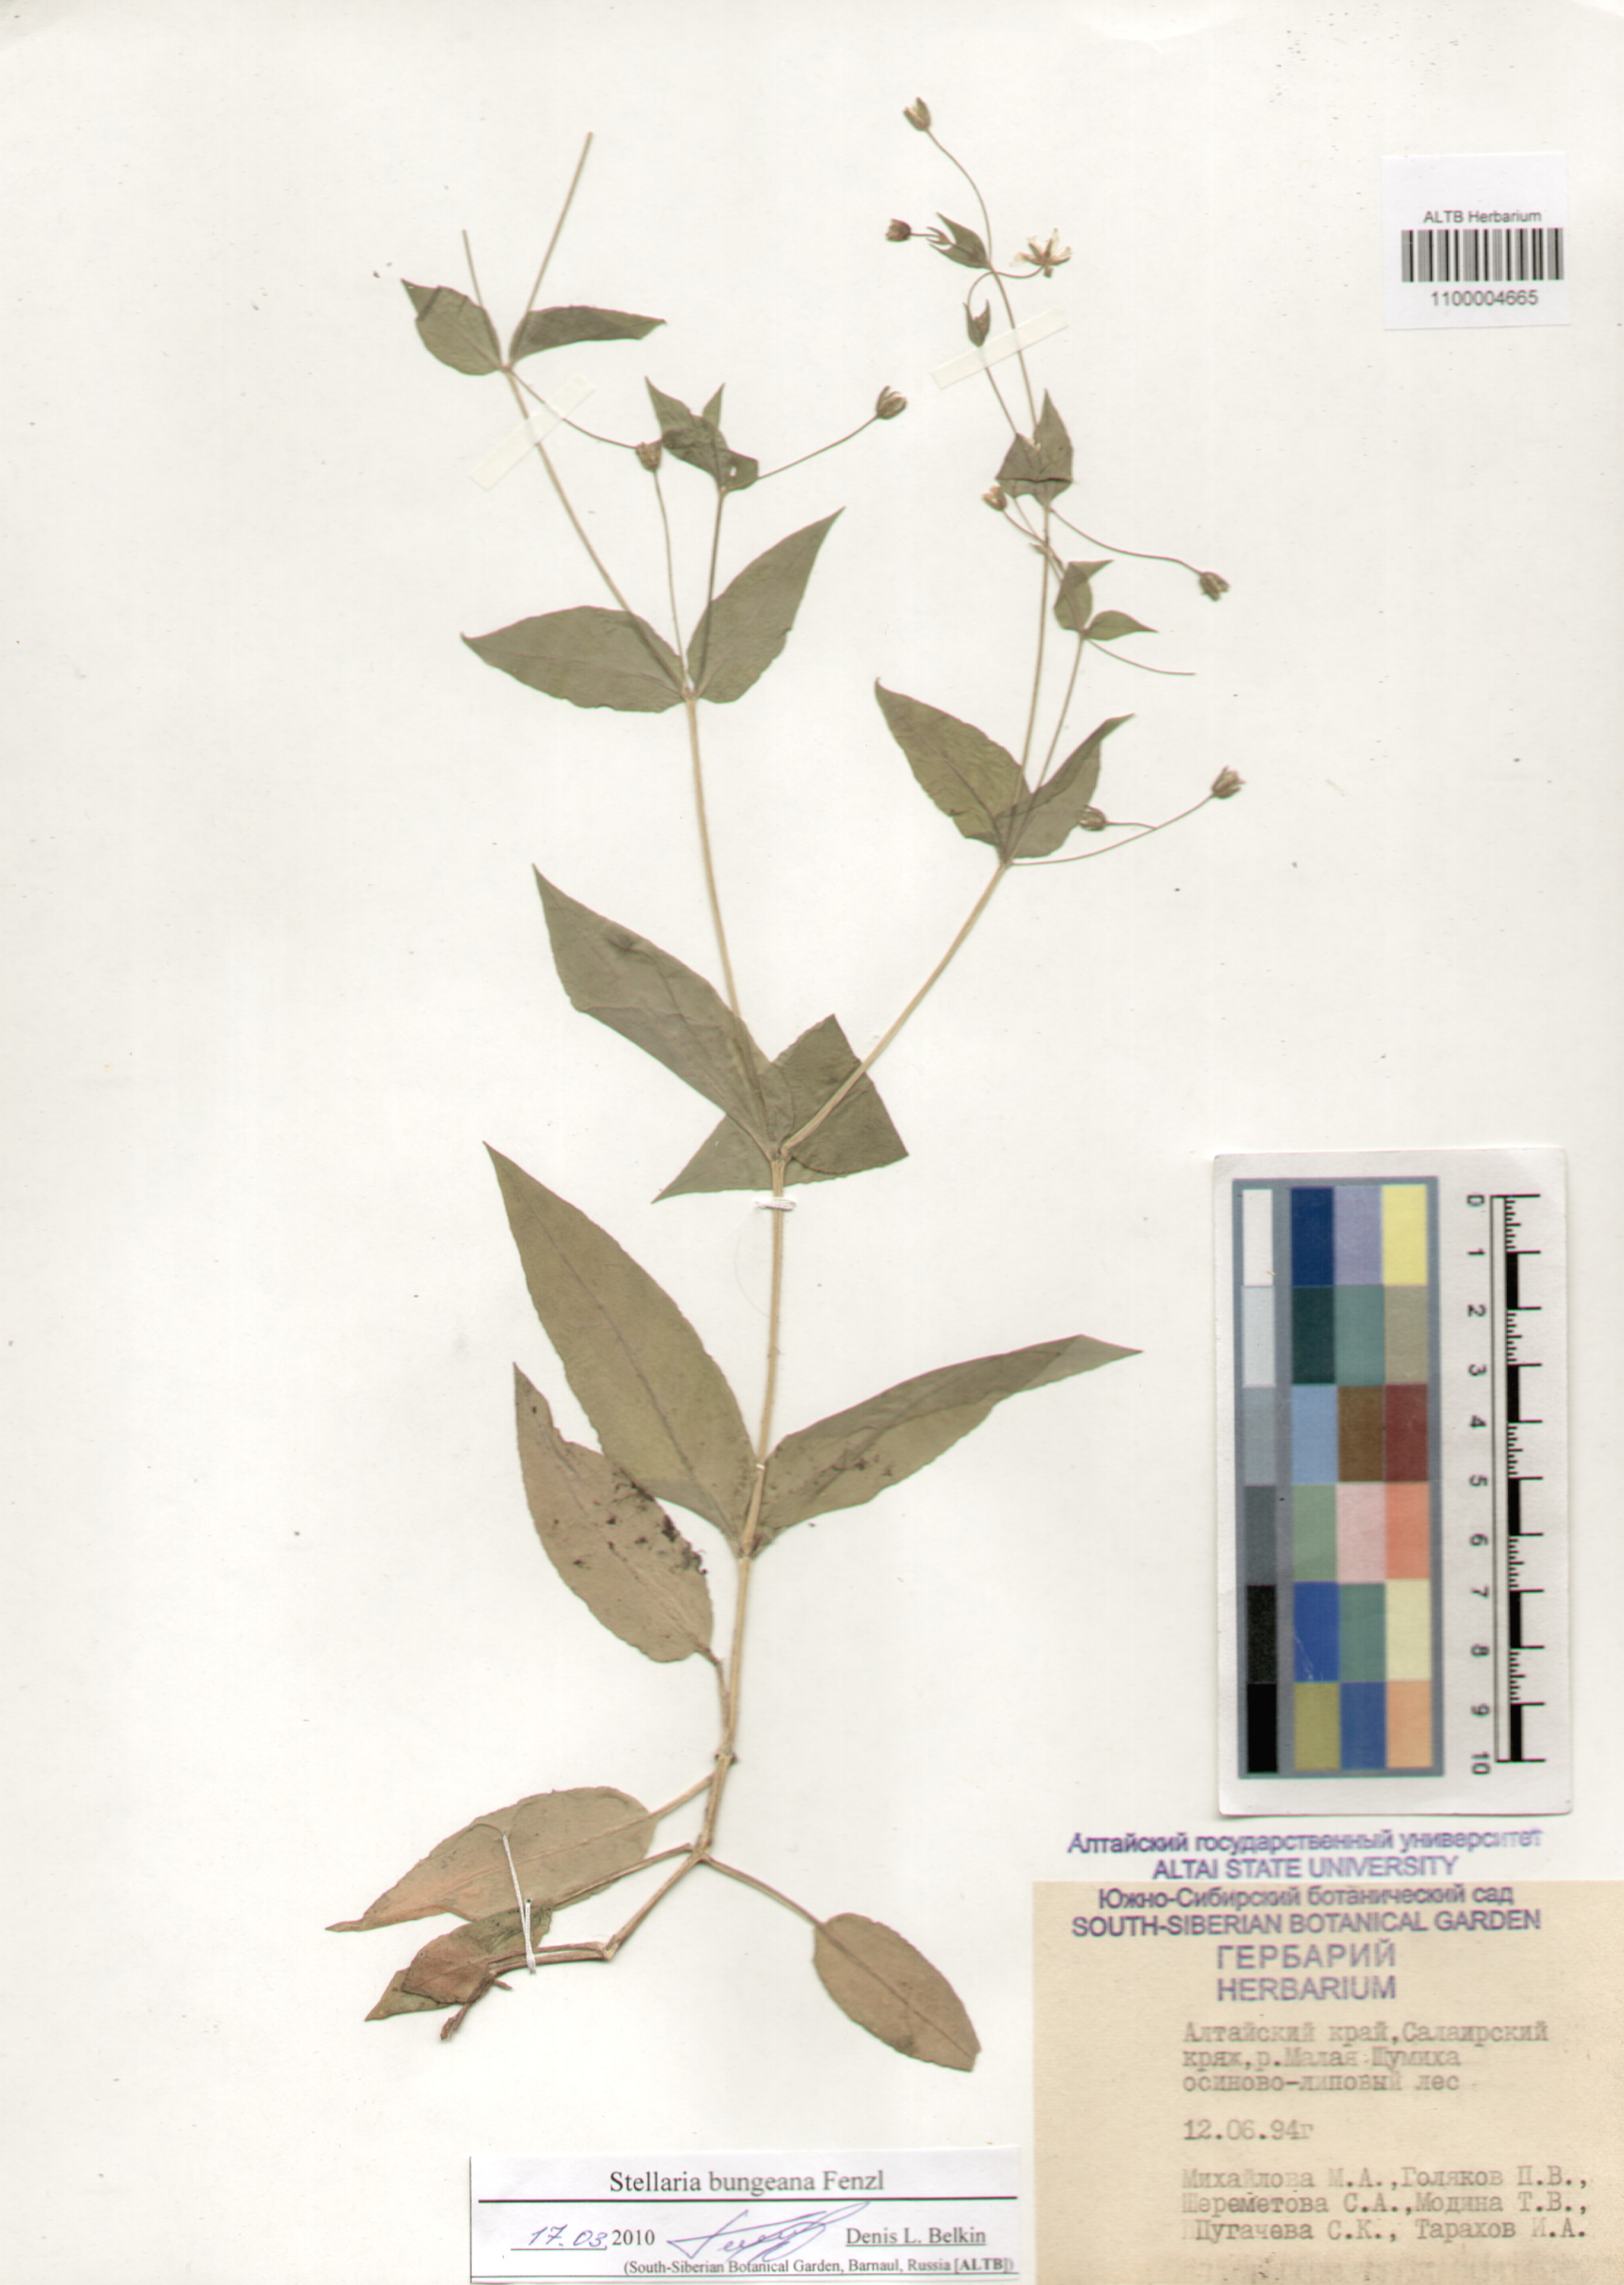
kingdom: Plantae
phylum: Tracheophyta
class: Magnoliopsida
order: Caryophyllales
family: Caryophyllaceae
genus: Stellaria
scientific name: Stellaria bungeana
